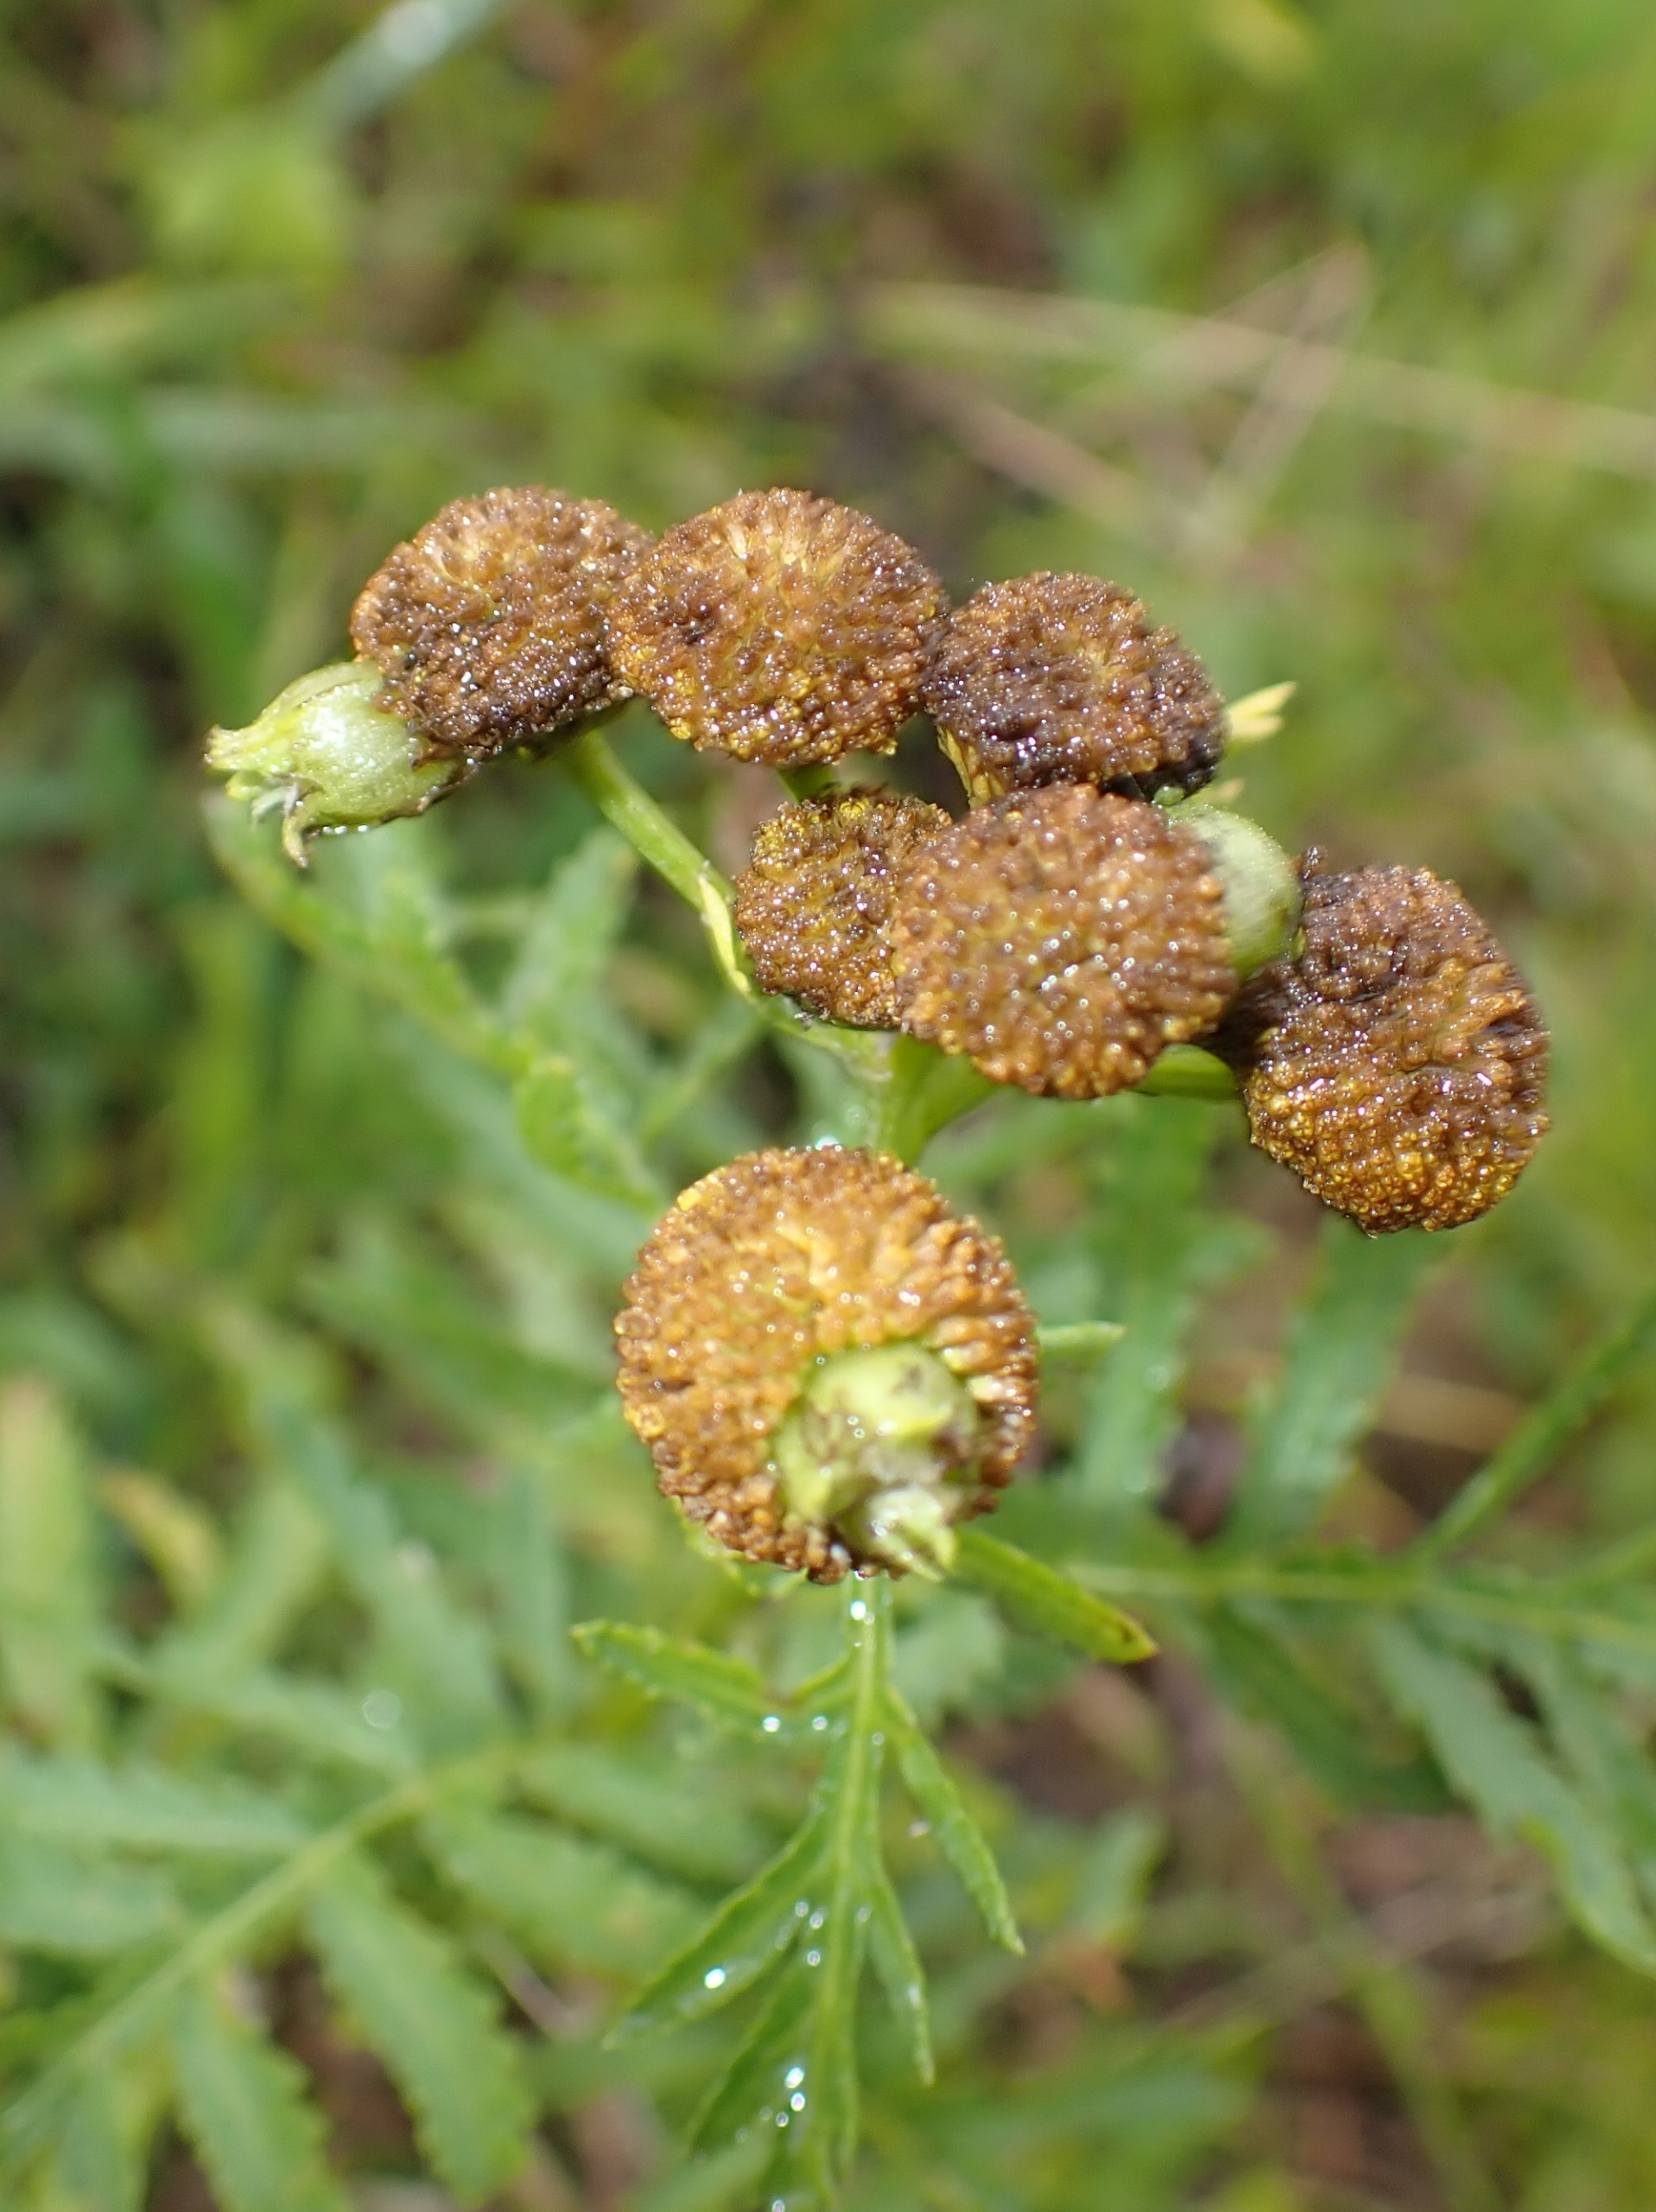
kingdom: Animalia
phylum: Arthropoda
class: Insecta
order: Diptera
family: Cecidomyiidae
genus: Rhopalomyia
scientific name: Rhopalomyia tanaceticolus
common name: Rejnfangalmyg
